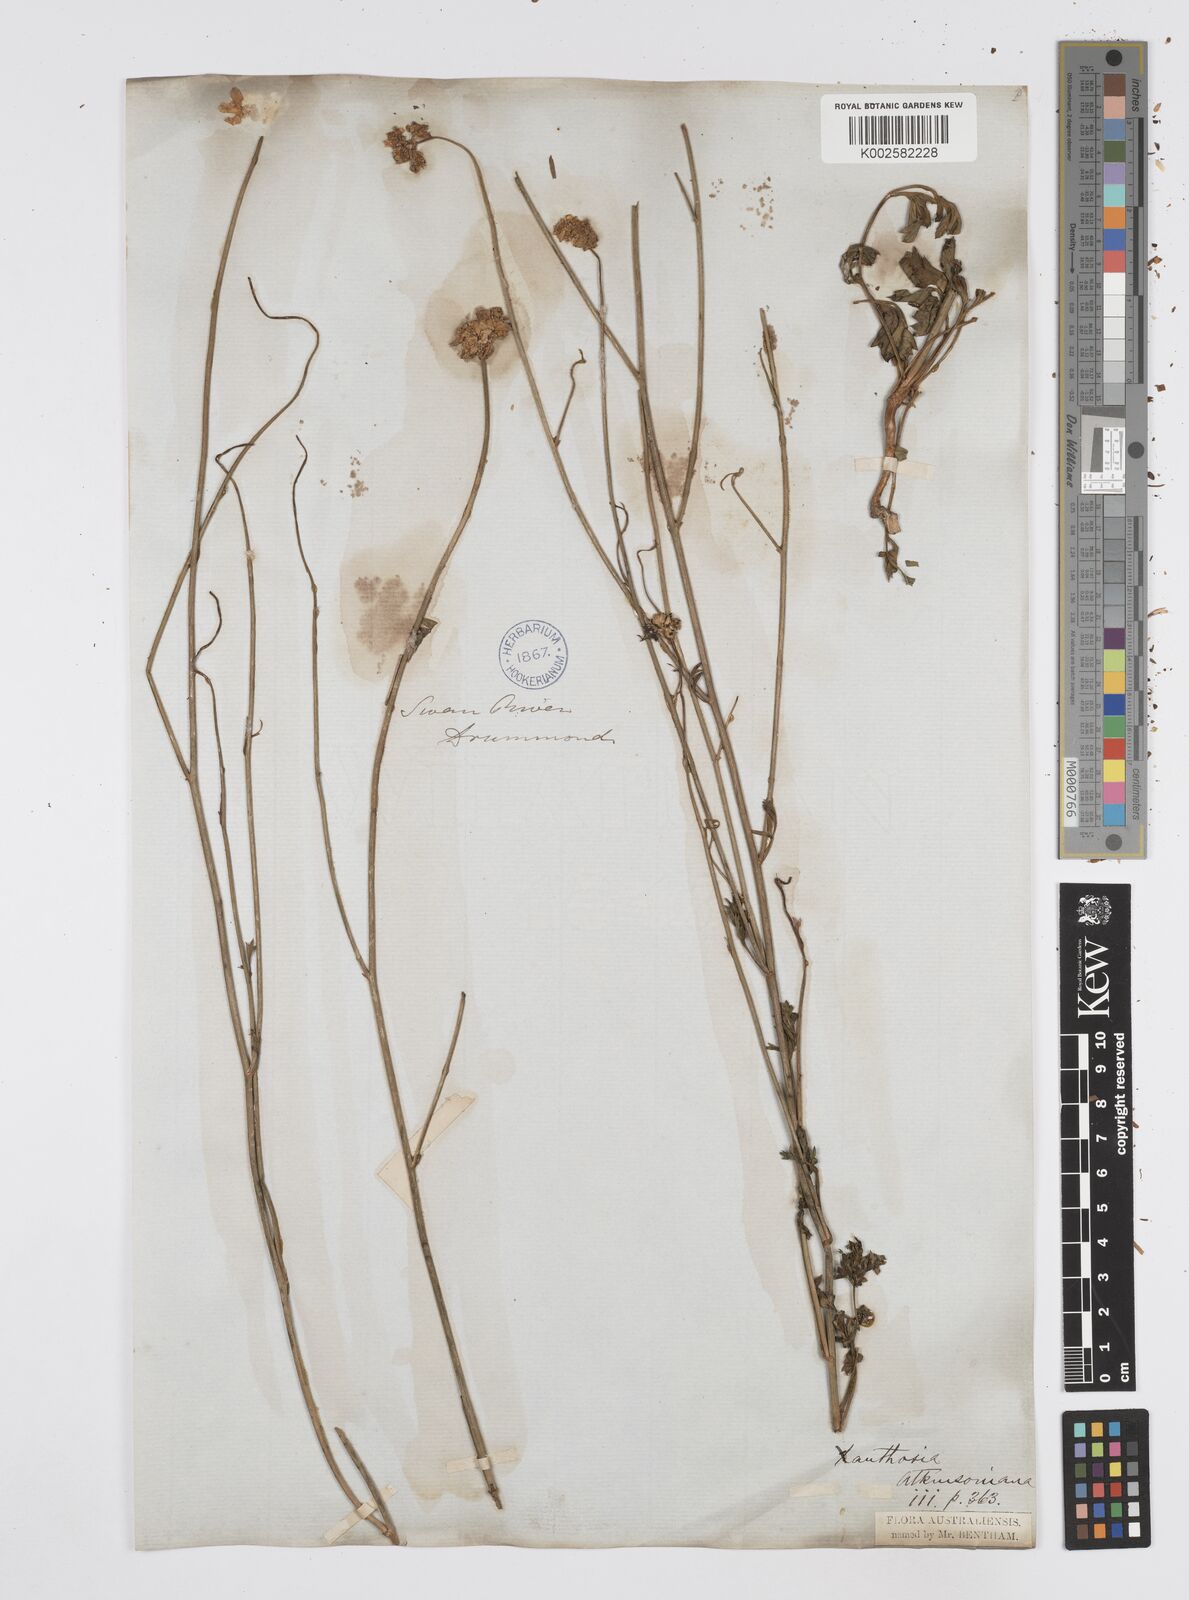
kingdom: Plantae
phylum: Tracheophyta
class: Magnoliopsida
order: Apiales
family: Apiaceae
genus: Xanthosia
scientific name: Xanthosia atkinsoniana
